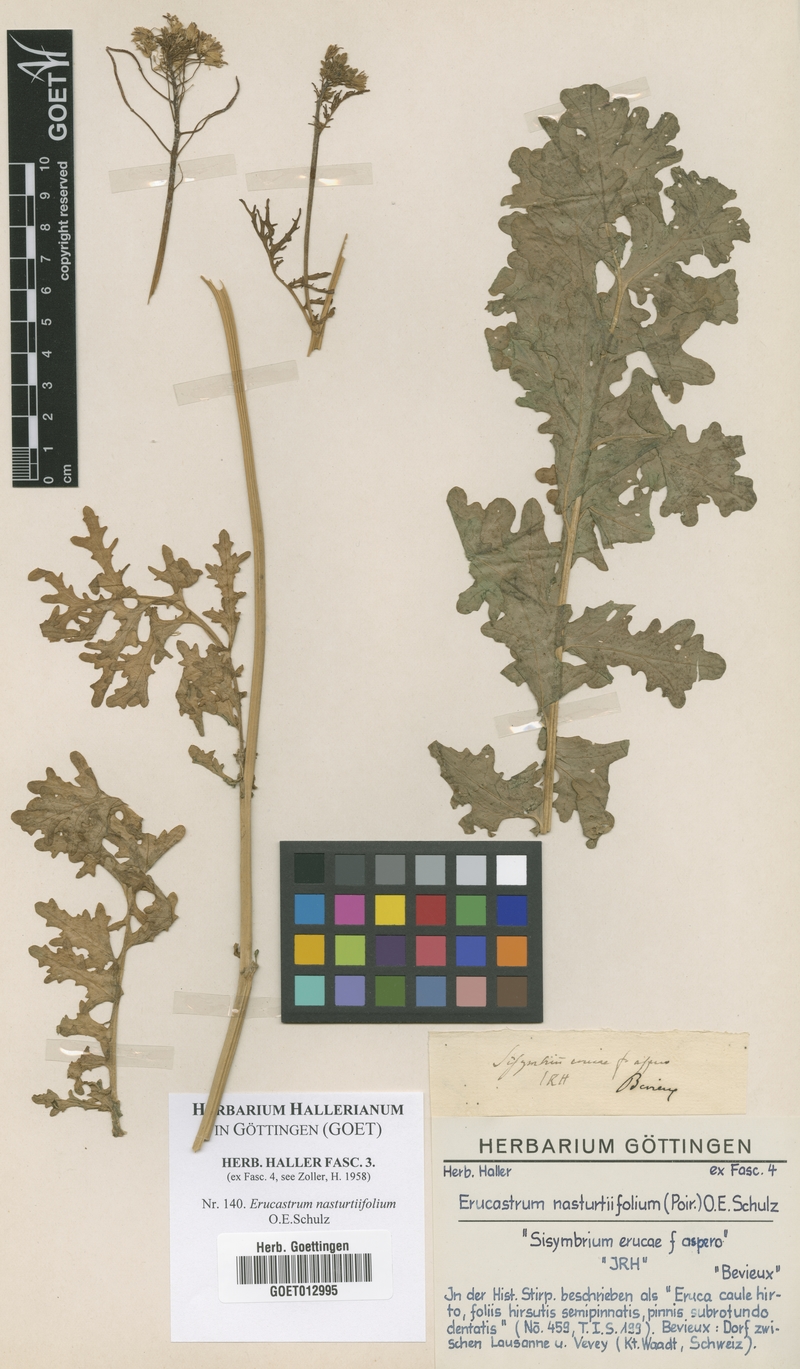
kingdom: Plantae
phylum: Tracheophyta
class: Magnoliopsida
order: Brassicales
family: Brassicaceae
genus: Erucastrum
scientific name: Erucastrum nasturtiifolium
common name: Watercress-leaf rocket
